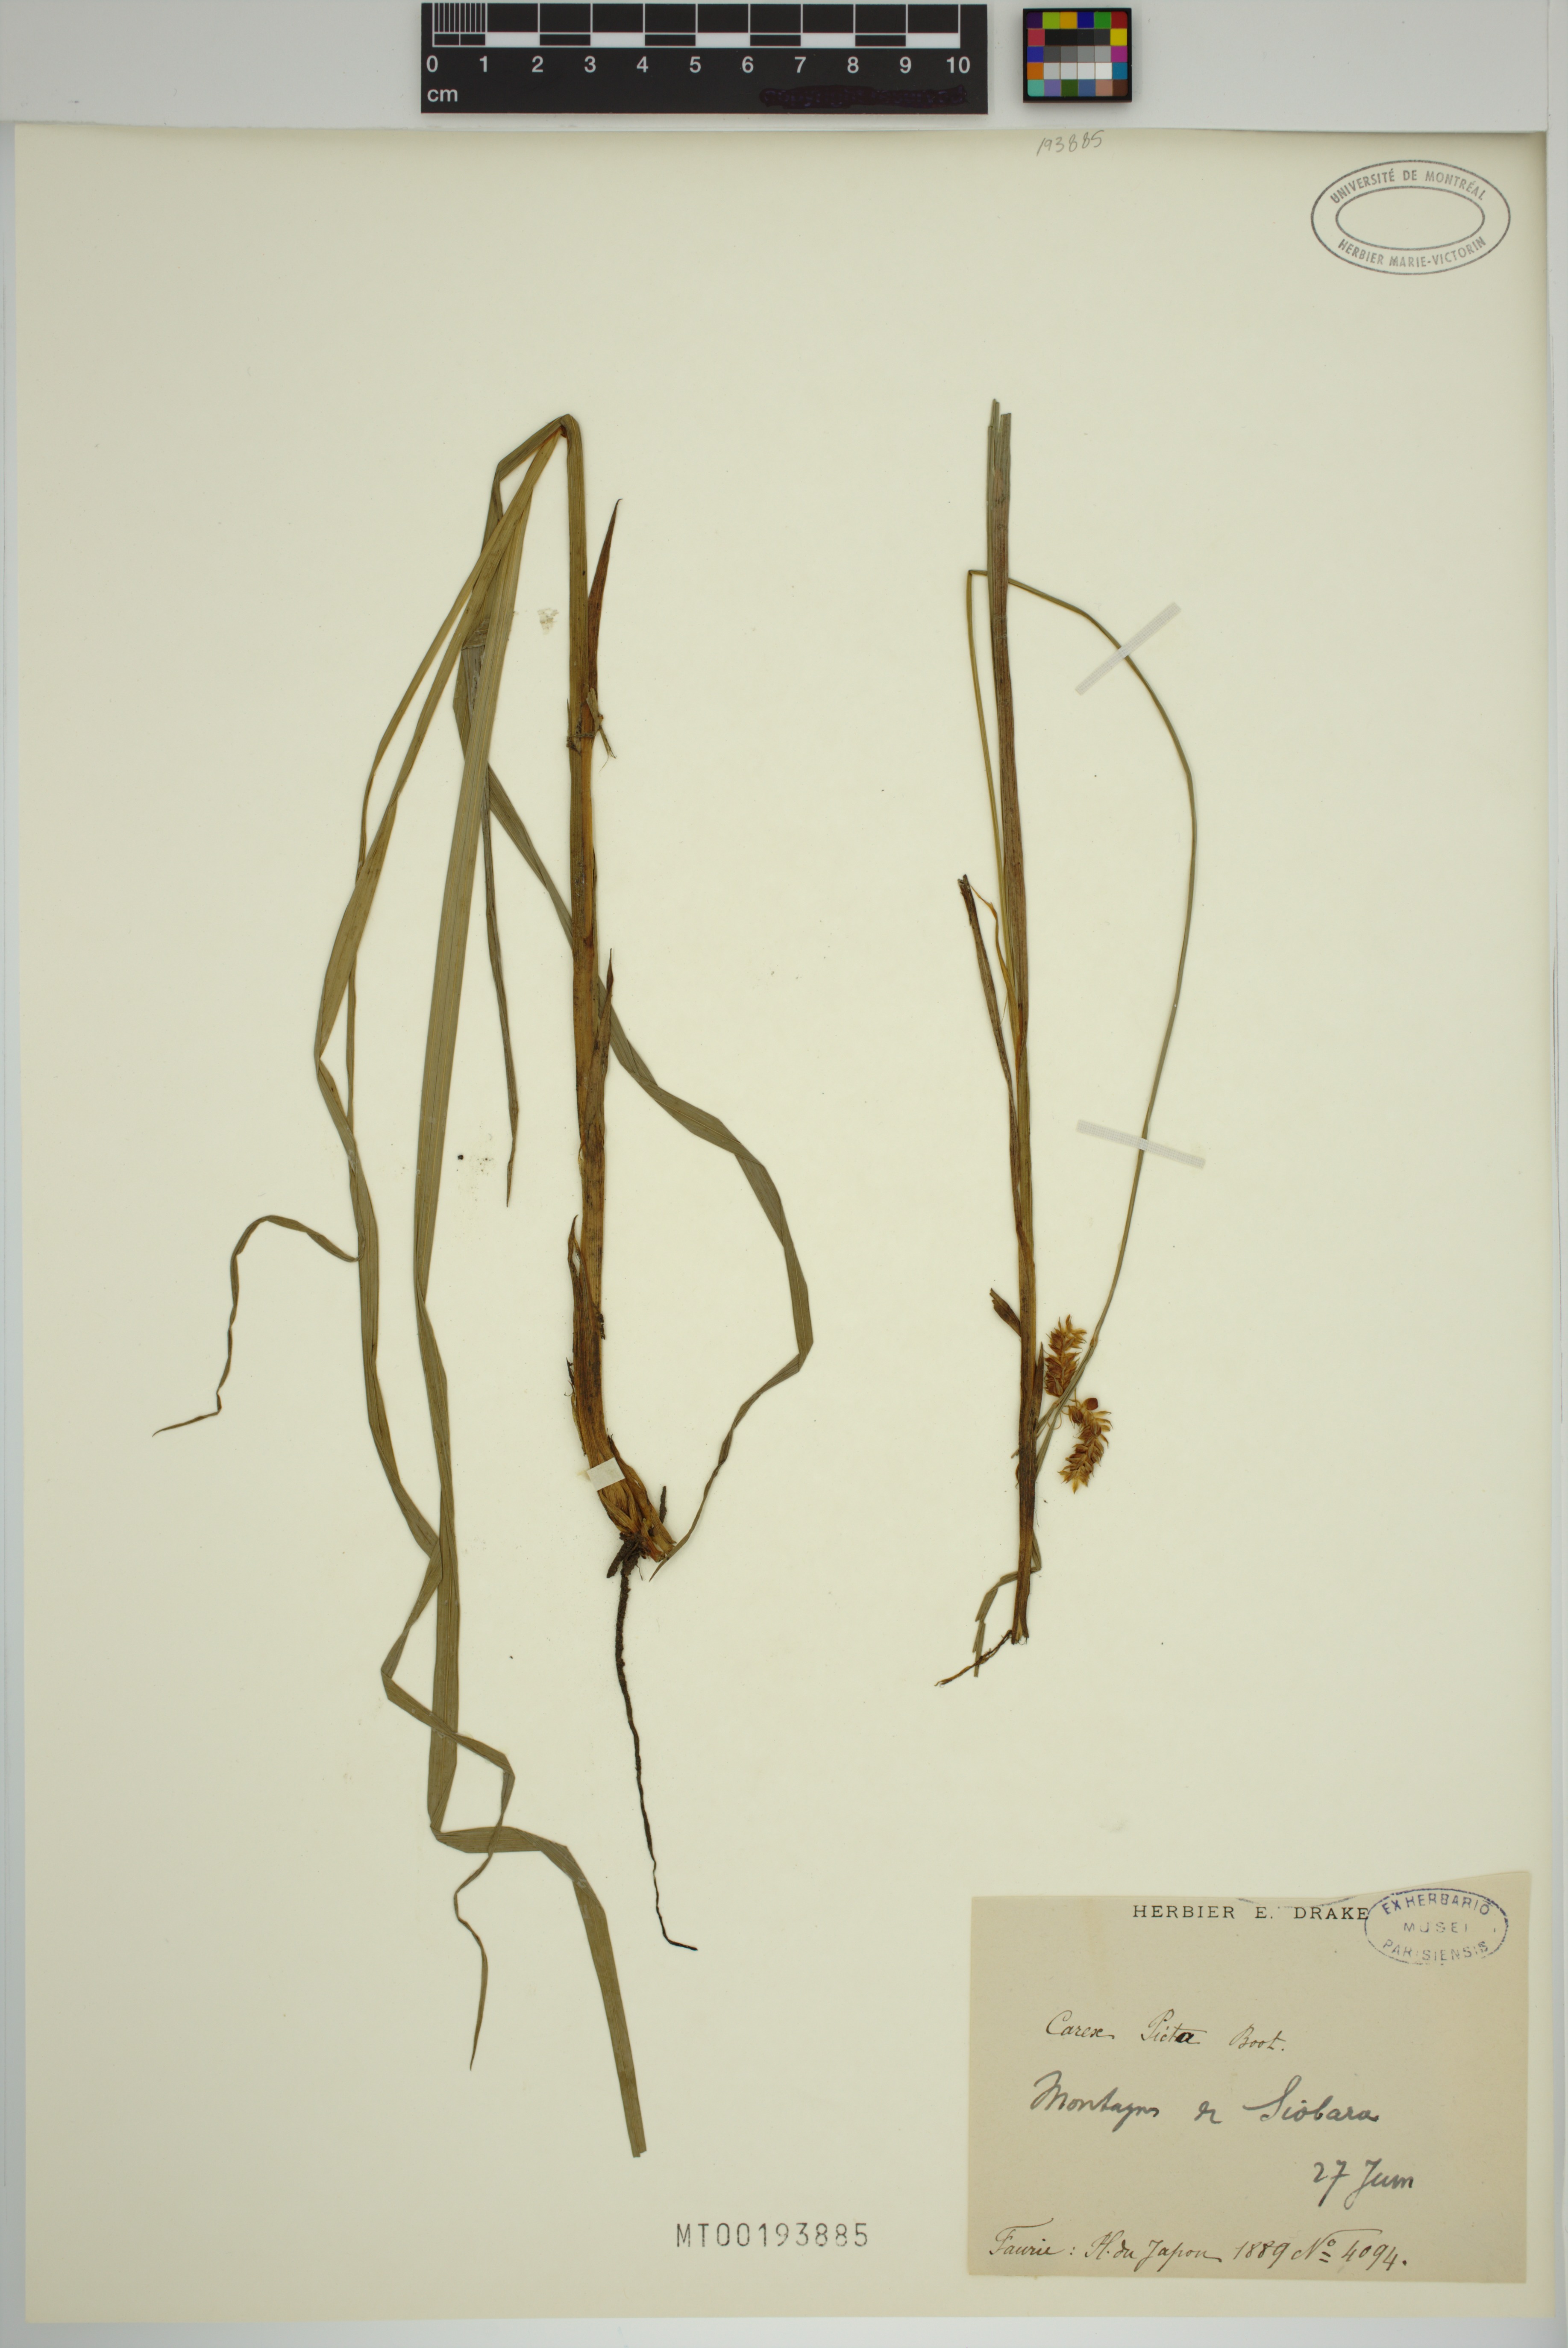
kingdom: Plantae
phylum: Tracheophyta
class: Liliopsida
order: Poales
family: Cyperaceae
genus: Carex
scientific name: Carex maximowiczii
